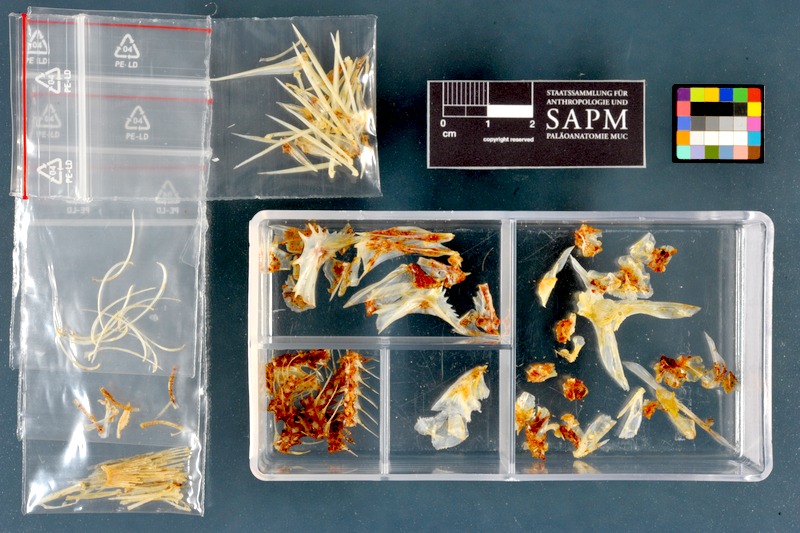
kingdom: Animalia
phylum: Chordata
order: Perciformes
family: Percidae
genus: Gymnocephalus
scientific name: Gymnocephalus schraetser
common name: Schraetzer
